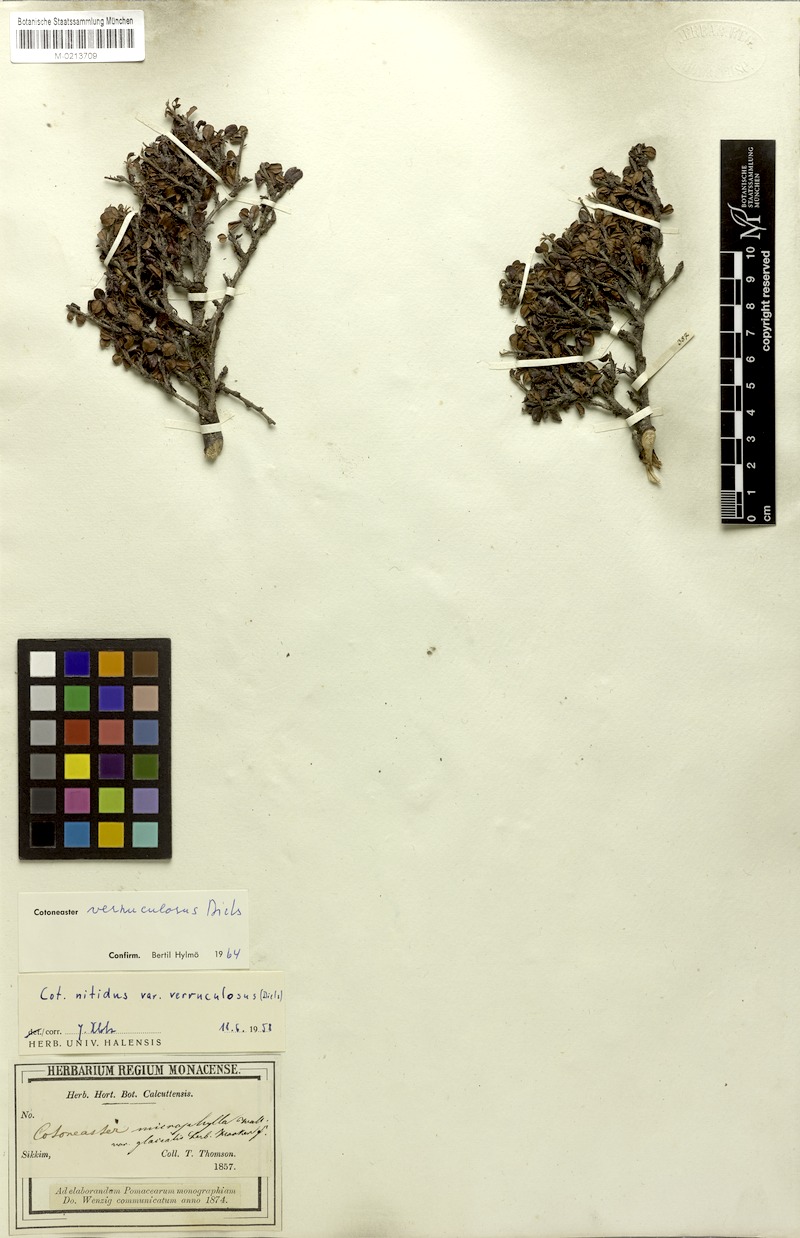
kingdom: Plantae
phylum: Tracheophyta
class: Magnoliopsida
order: Rosales
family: Rosaceae
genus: Cotoneaster
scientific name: Cotoneaster rotundifolius
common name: Round-leaved cotoneaster
